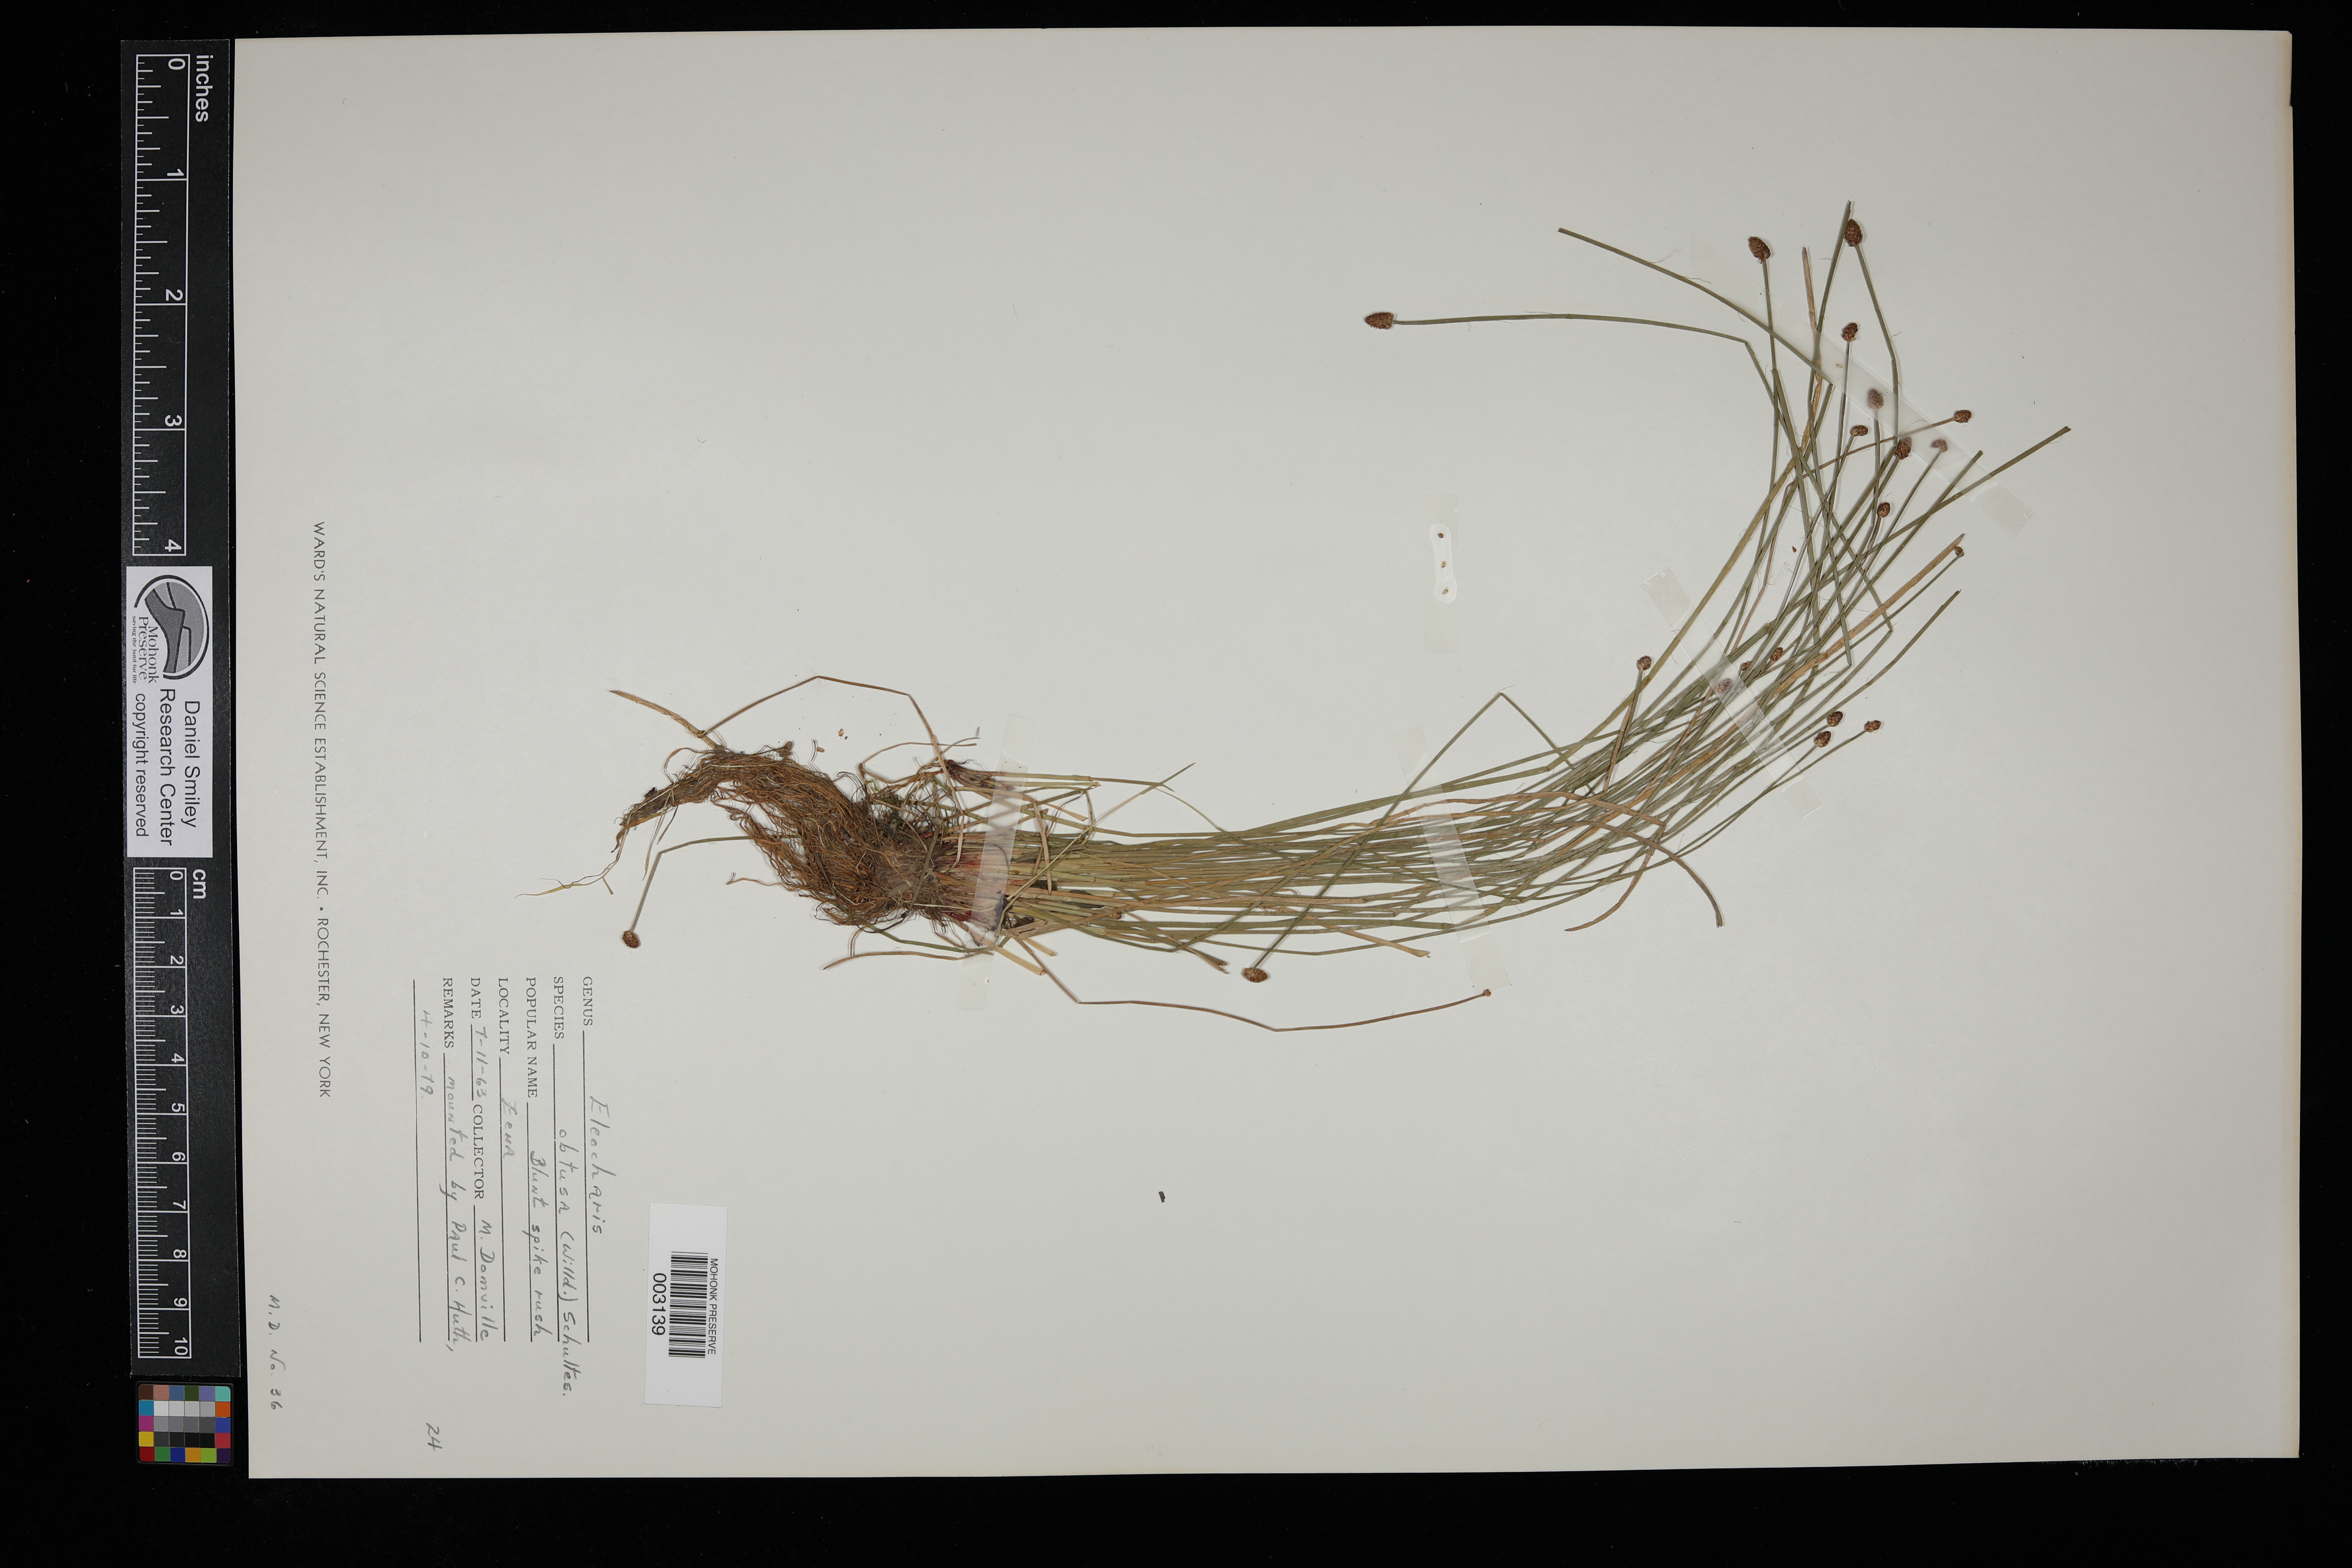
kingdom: Plantae
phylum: Tracheophyta
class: Liliopsida
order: Poales
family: Cyperaceae
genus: Eleocharis
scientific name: Eleocharis obtusa
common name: Blunt spikerush
